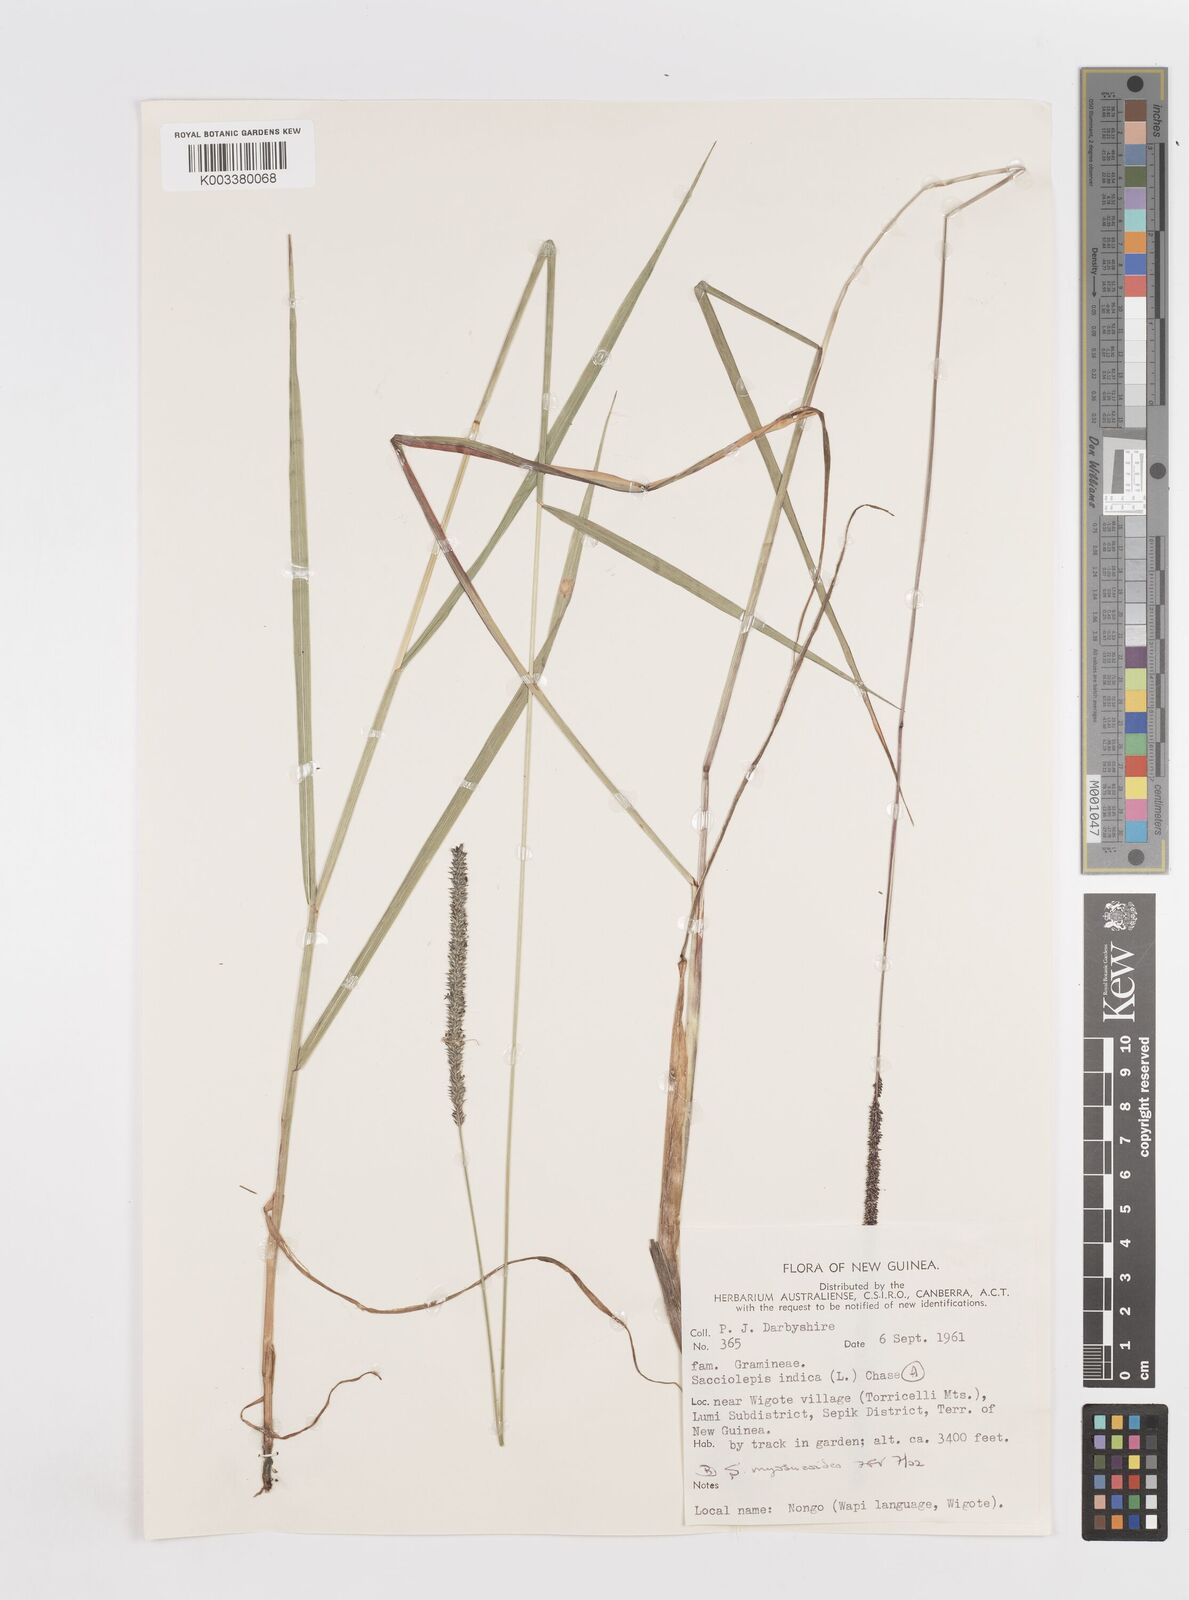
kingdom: Plantae
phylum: Tracheophyta
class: Liliopsida
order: Poales
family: Poaceae
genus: Sacciolepis
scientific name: Sacciolepis myosuroides
